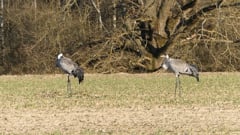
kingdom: Animalia
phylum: Chordata
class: Aves
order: Gruiformes
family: Gruidae
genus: Grus
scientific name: Grus grus
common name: Common crane
